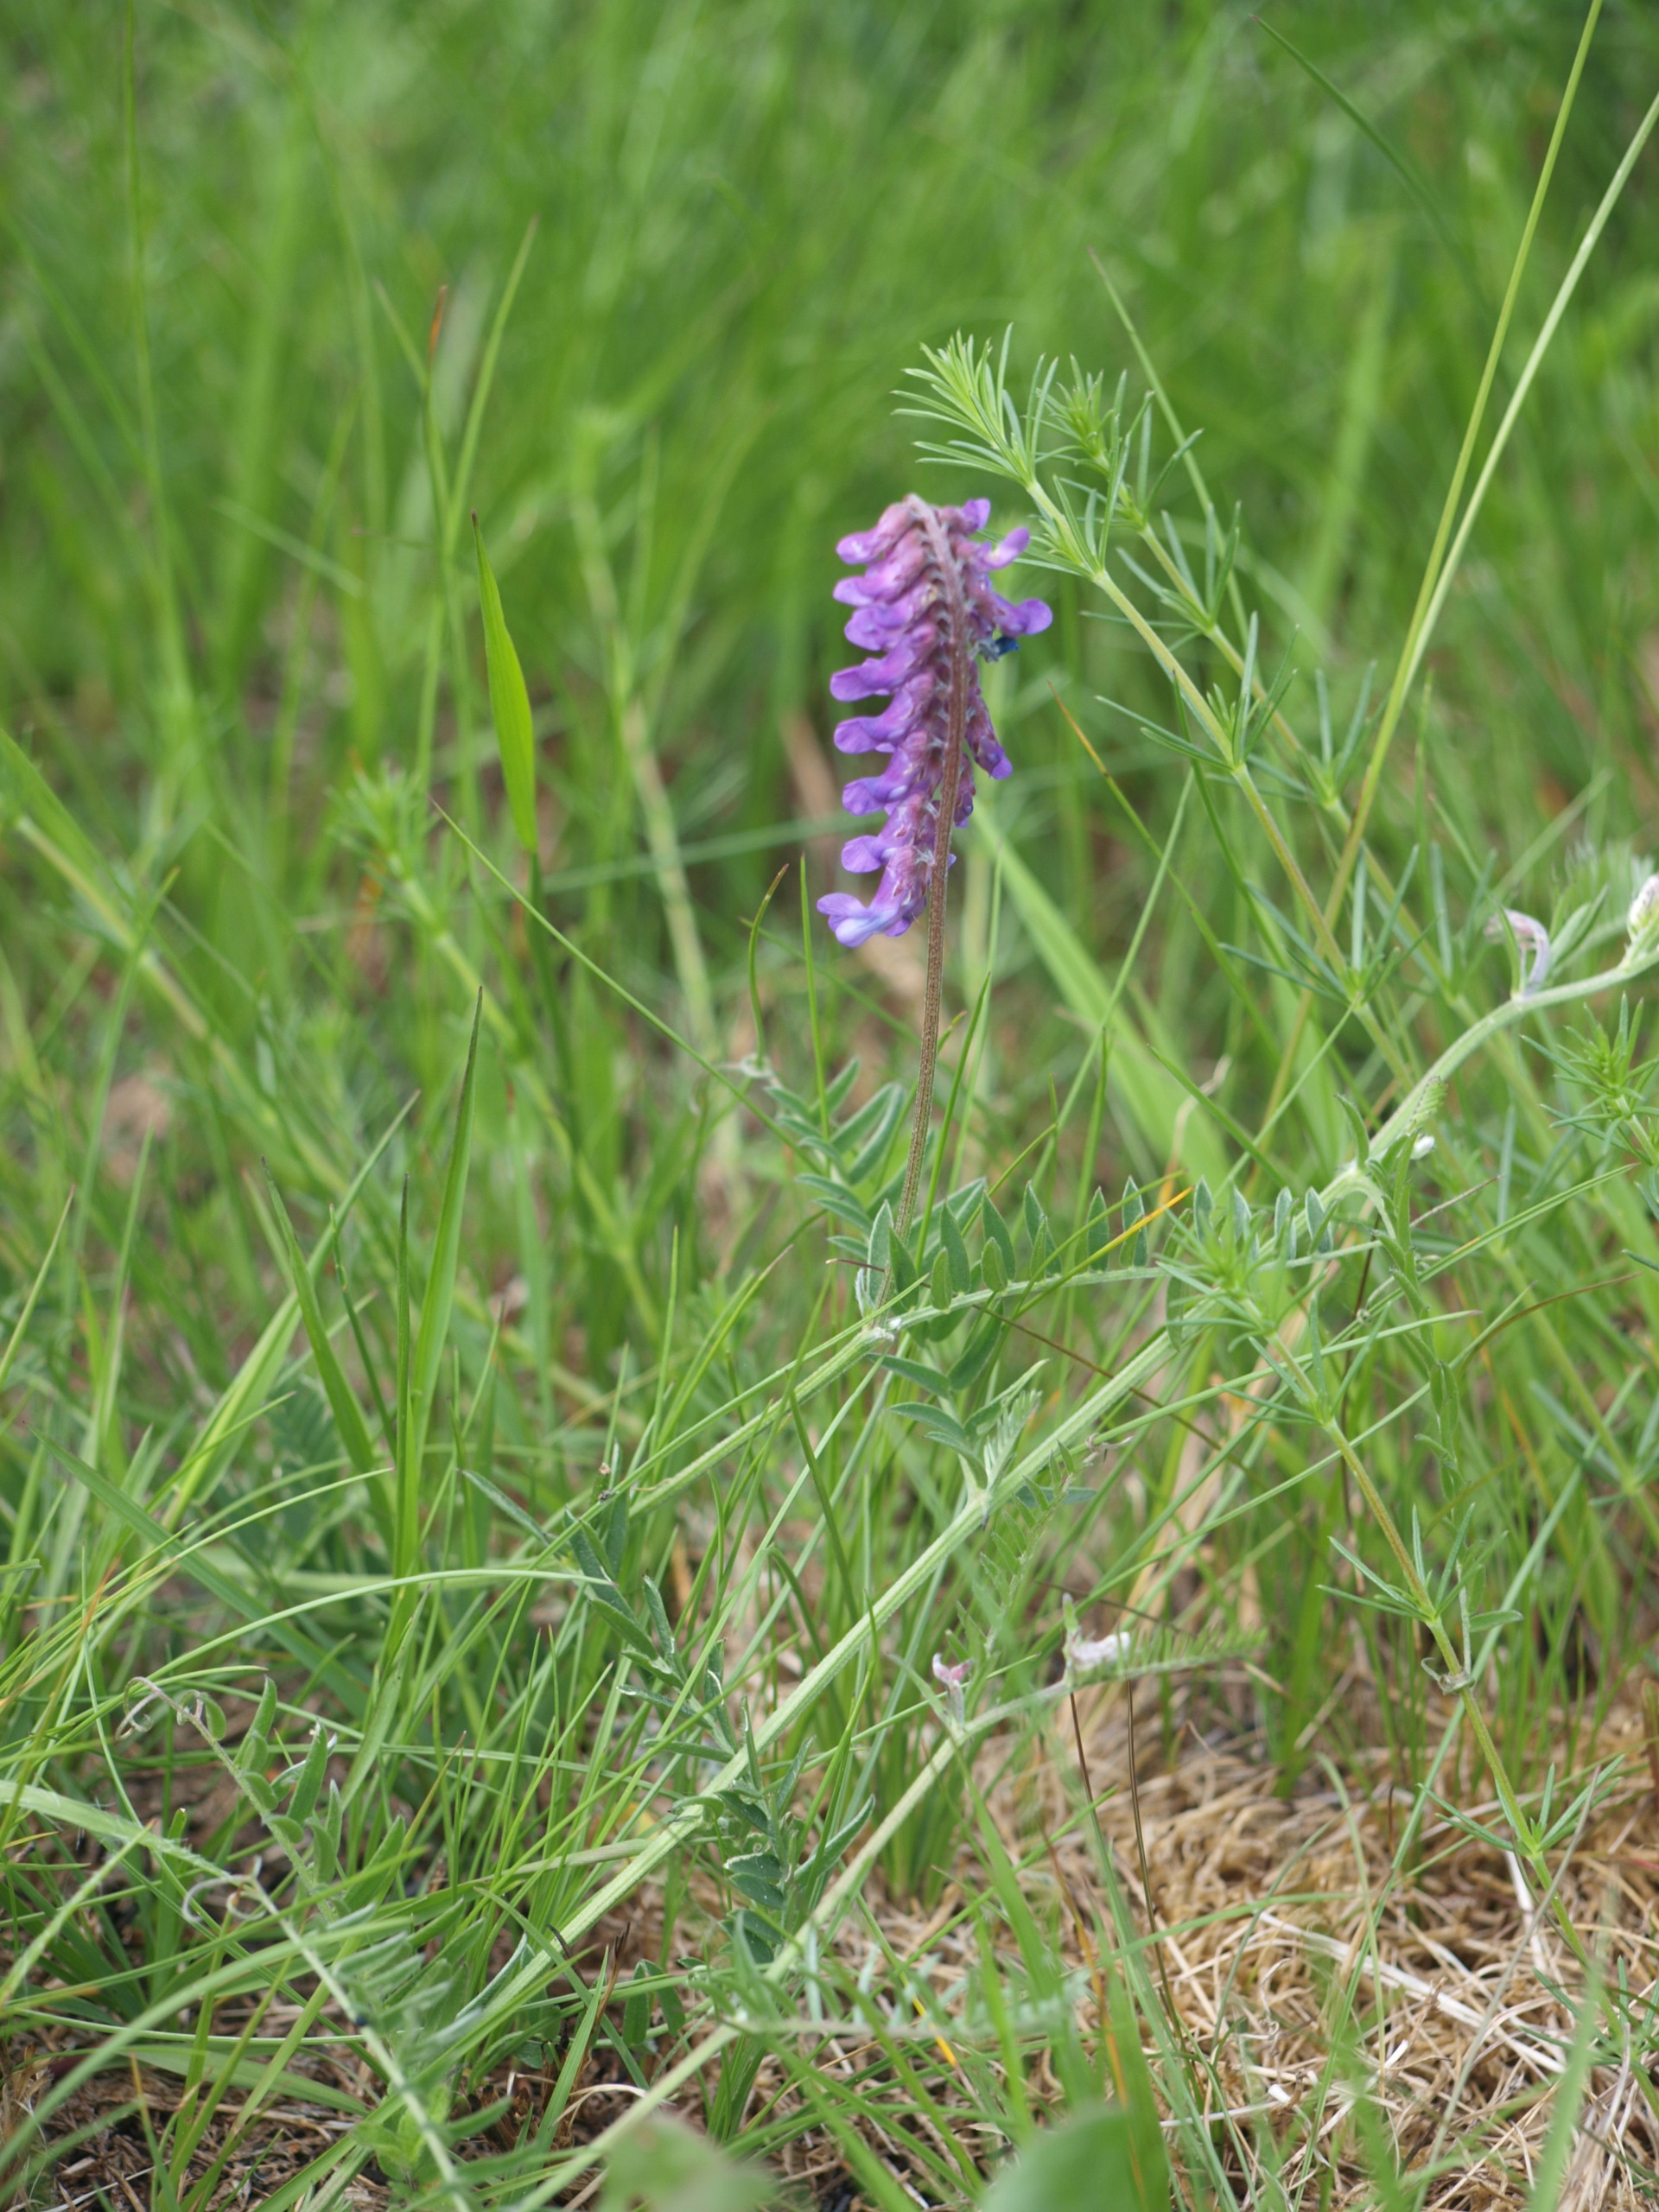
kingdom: Plantae
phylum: Tracheophyta
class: Magnoliopsida
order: Fabales
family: Fabaceae
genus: Vicia
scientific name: Vicia cracca
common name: Muse-vikke
